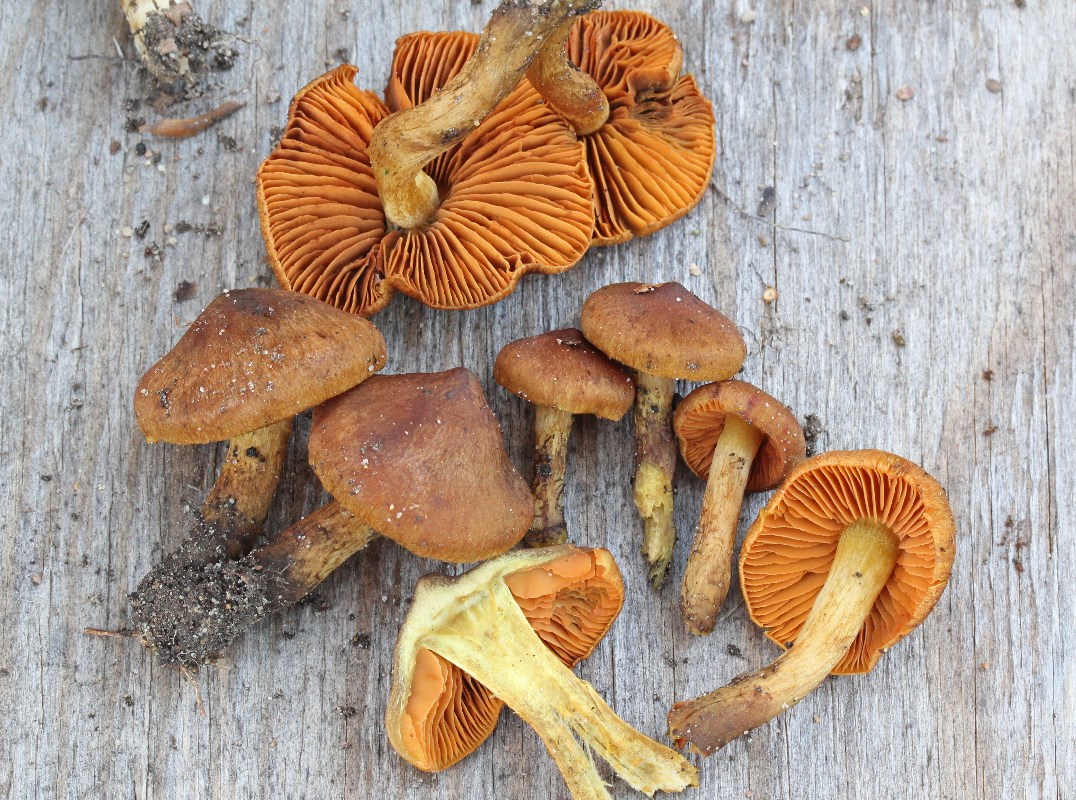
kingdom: Fungi
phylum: Basidiomycota
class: Agaricomycetes
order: Agaricales
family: Cortinariaceae
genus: Cortinarius
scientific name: Cortinarius malicorius
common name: grønkødet slørhat
